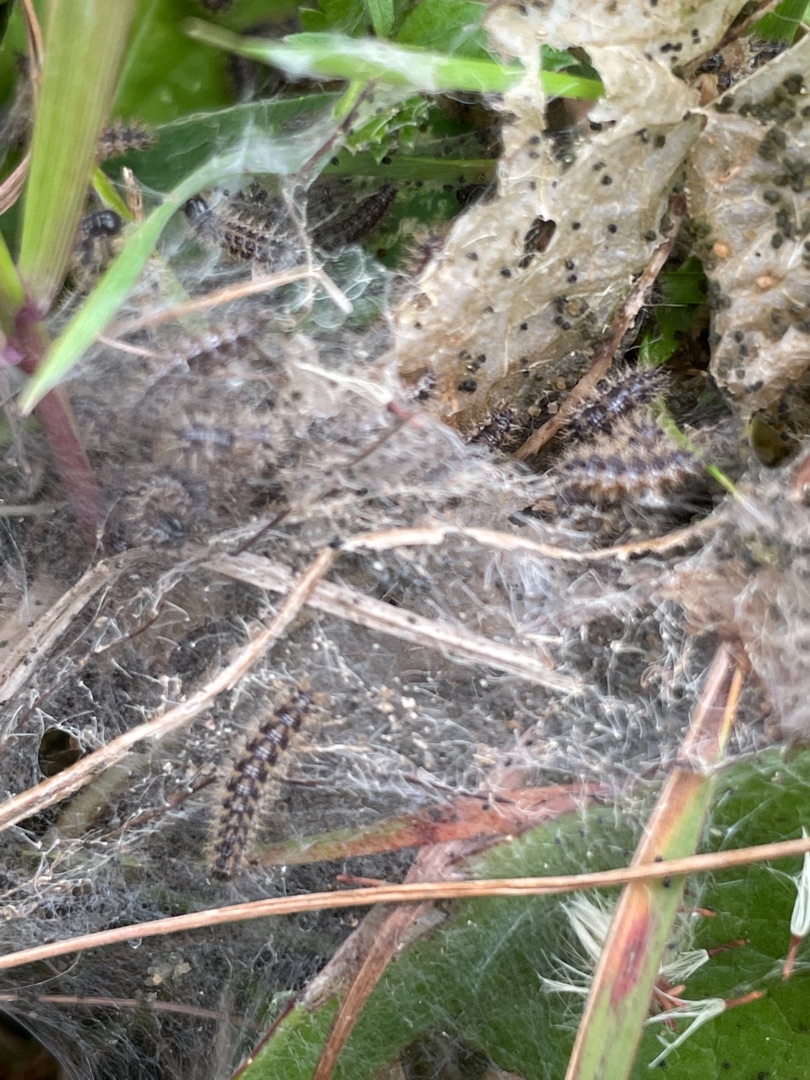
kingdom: Animalia
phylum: Arthropoda
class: Insecta
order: Lepidoptera
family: Nymphalidae
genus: Euphydryas
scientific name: Euphydryas aurinia
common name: Hedepletvinge
